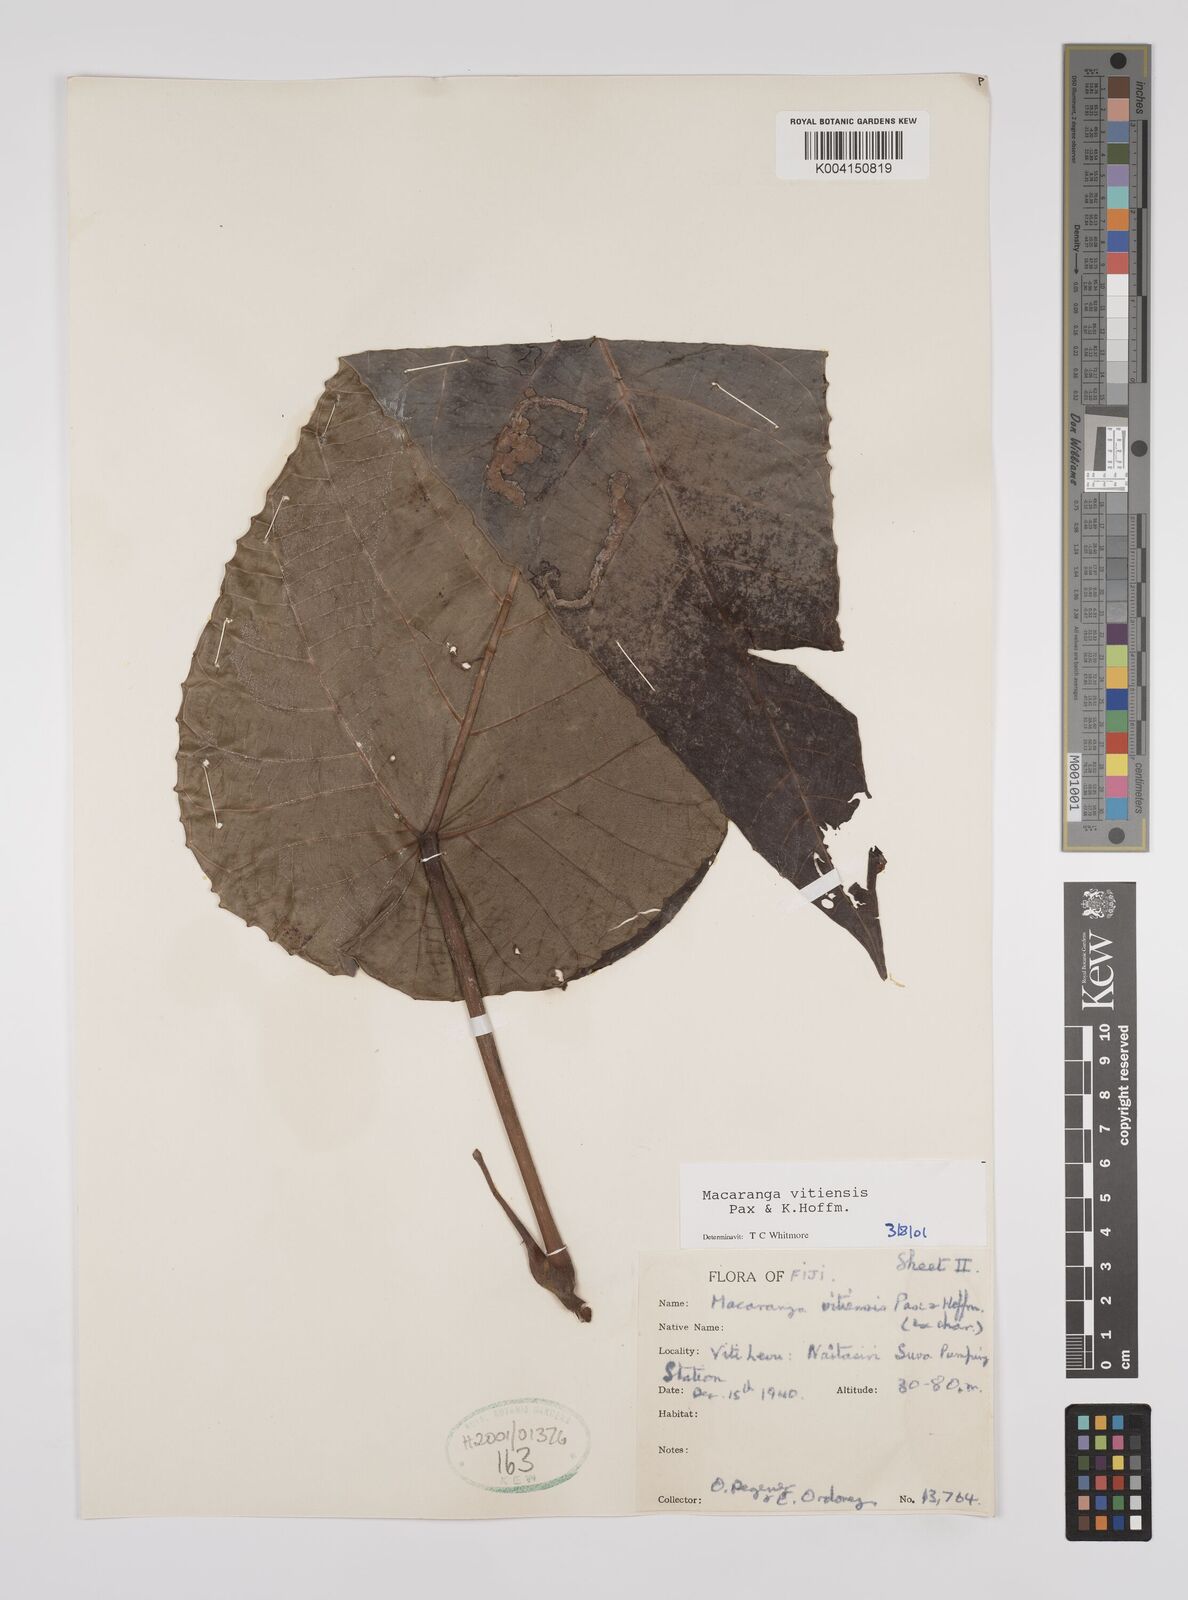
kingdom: Plantae
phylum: Tracheophyta
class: Magnoliopsida
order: Malpighiales
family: Euphorbiaceae
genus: Macaranga
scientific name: Macaranga vitiensis
